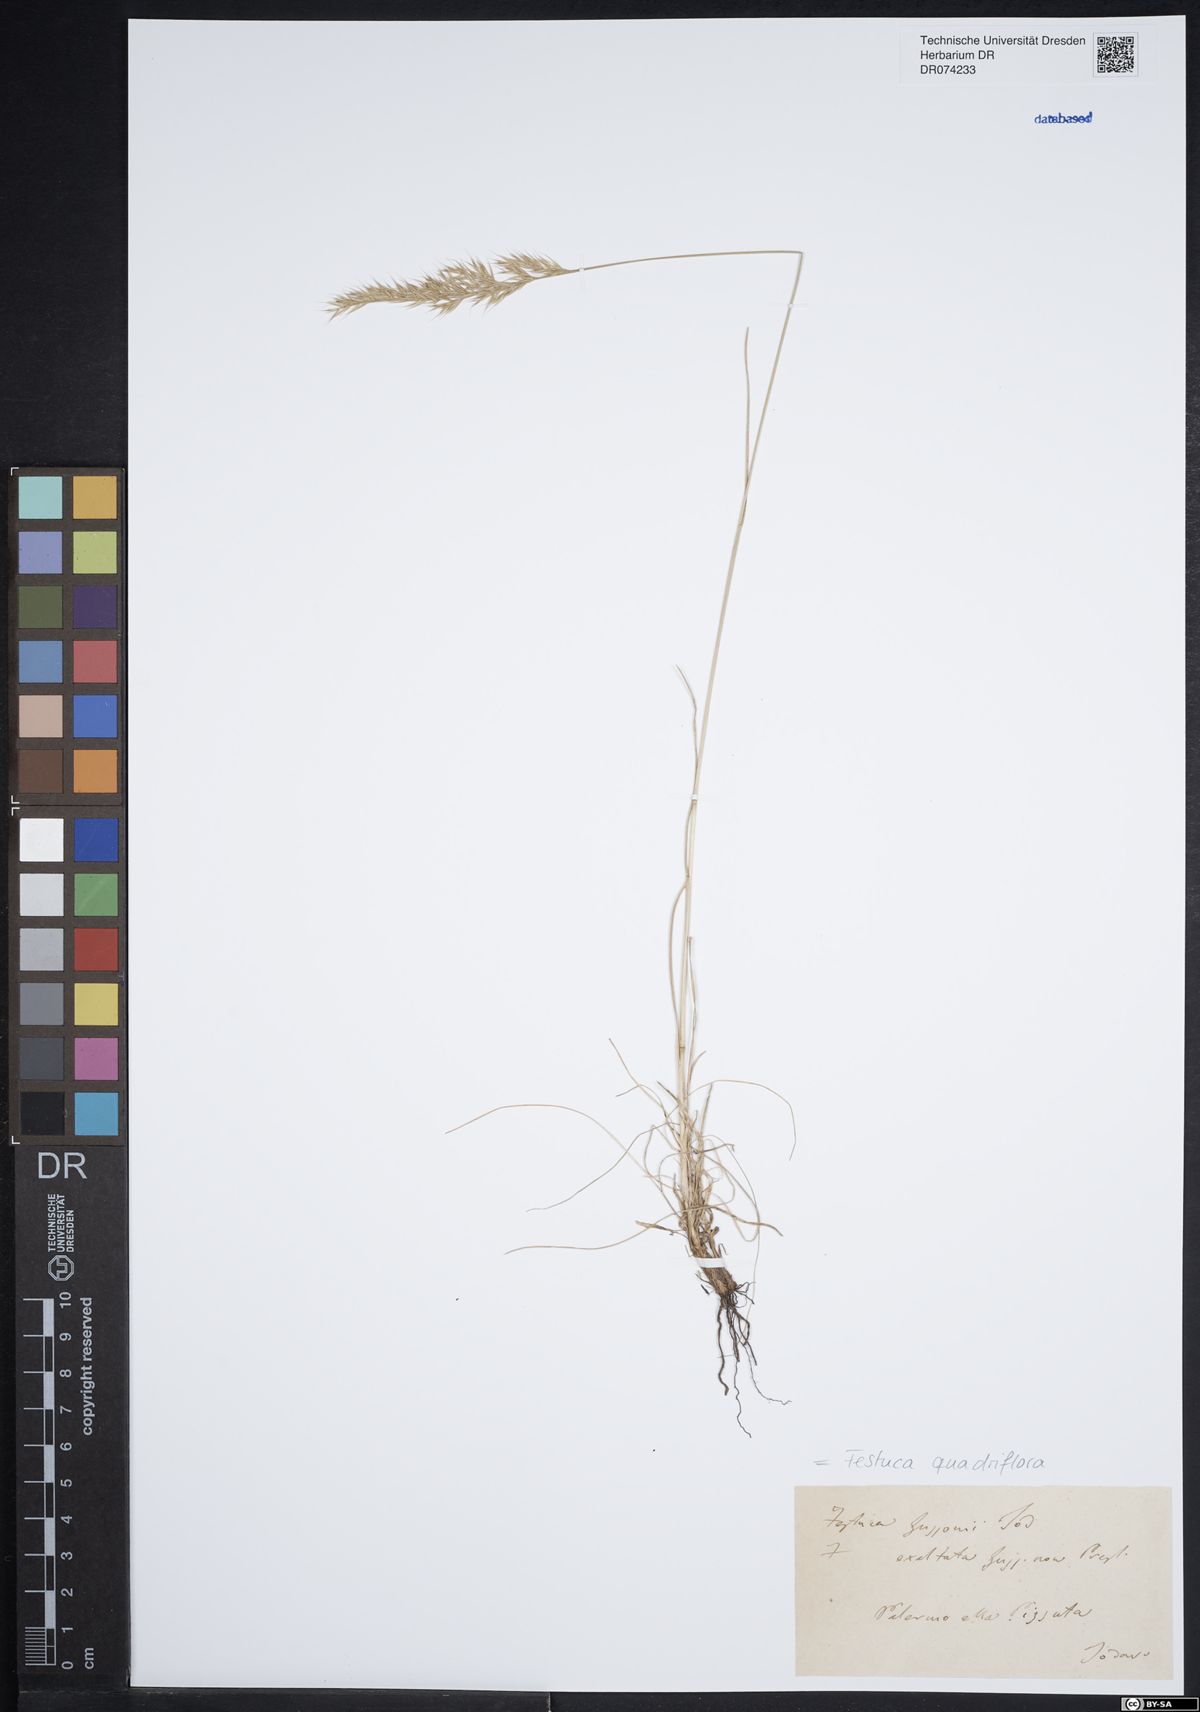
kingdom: Plantae
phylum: Tracheophyta
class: Liliopsida
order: Poales
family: Poaceae
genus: Festuca
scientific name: Festuca quadriflora
